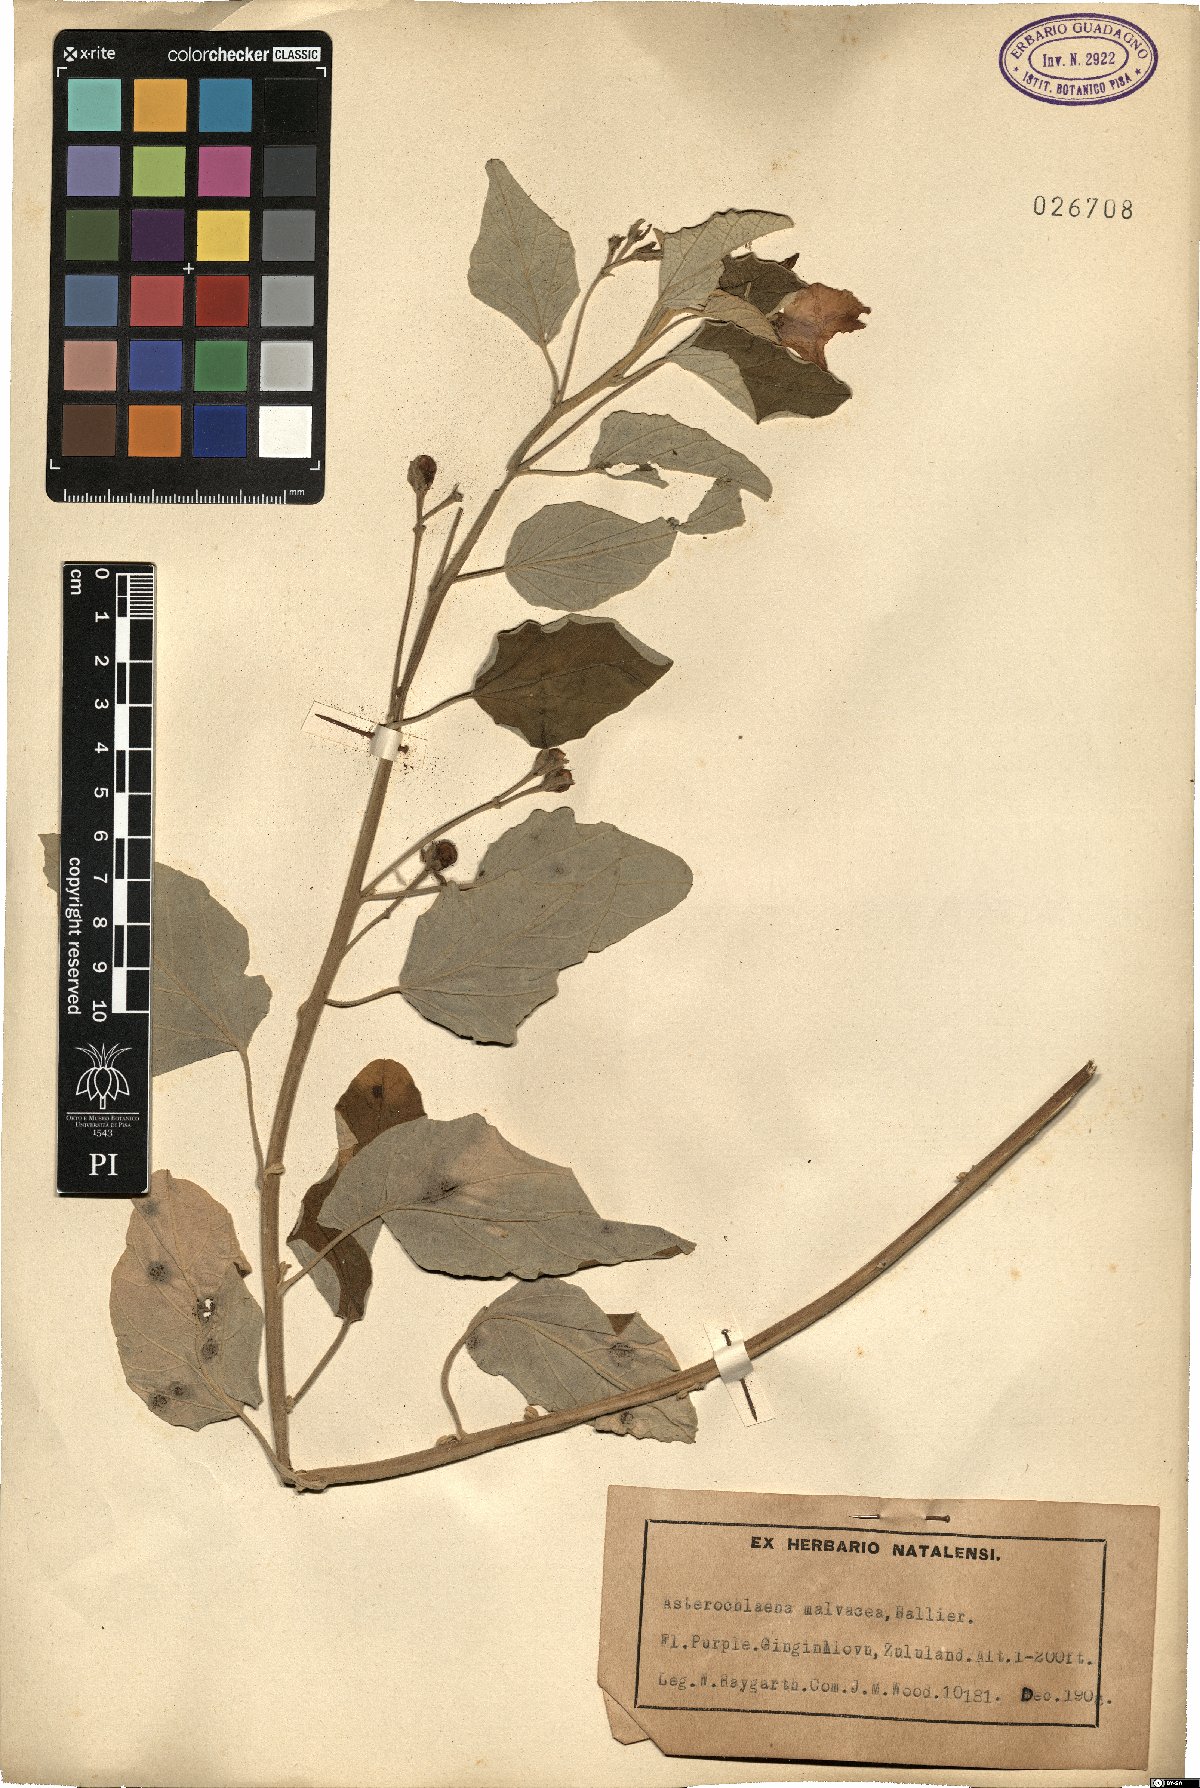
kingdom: Plantae
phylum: Tracheophyta
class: Polypodiopsida
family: Zygopteridaceae
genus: Asterochlaena
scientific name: Asterochlaena
